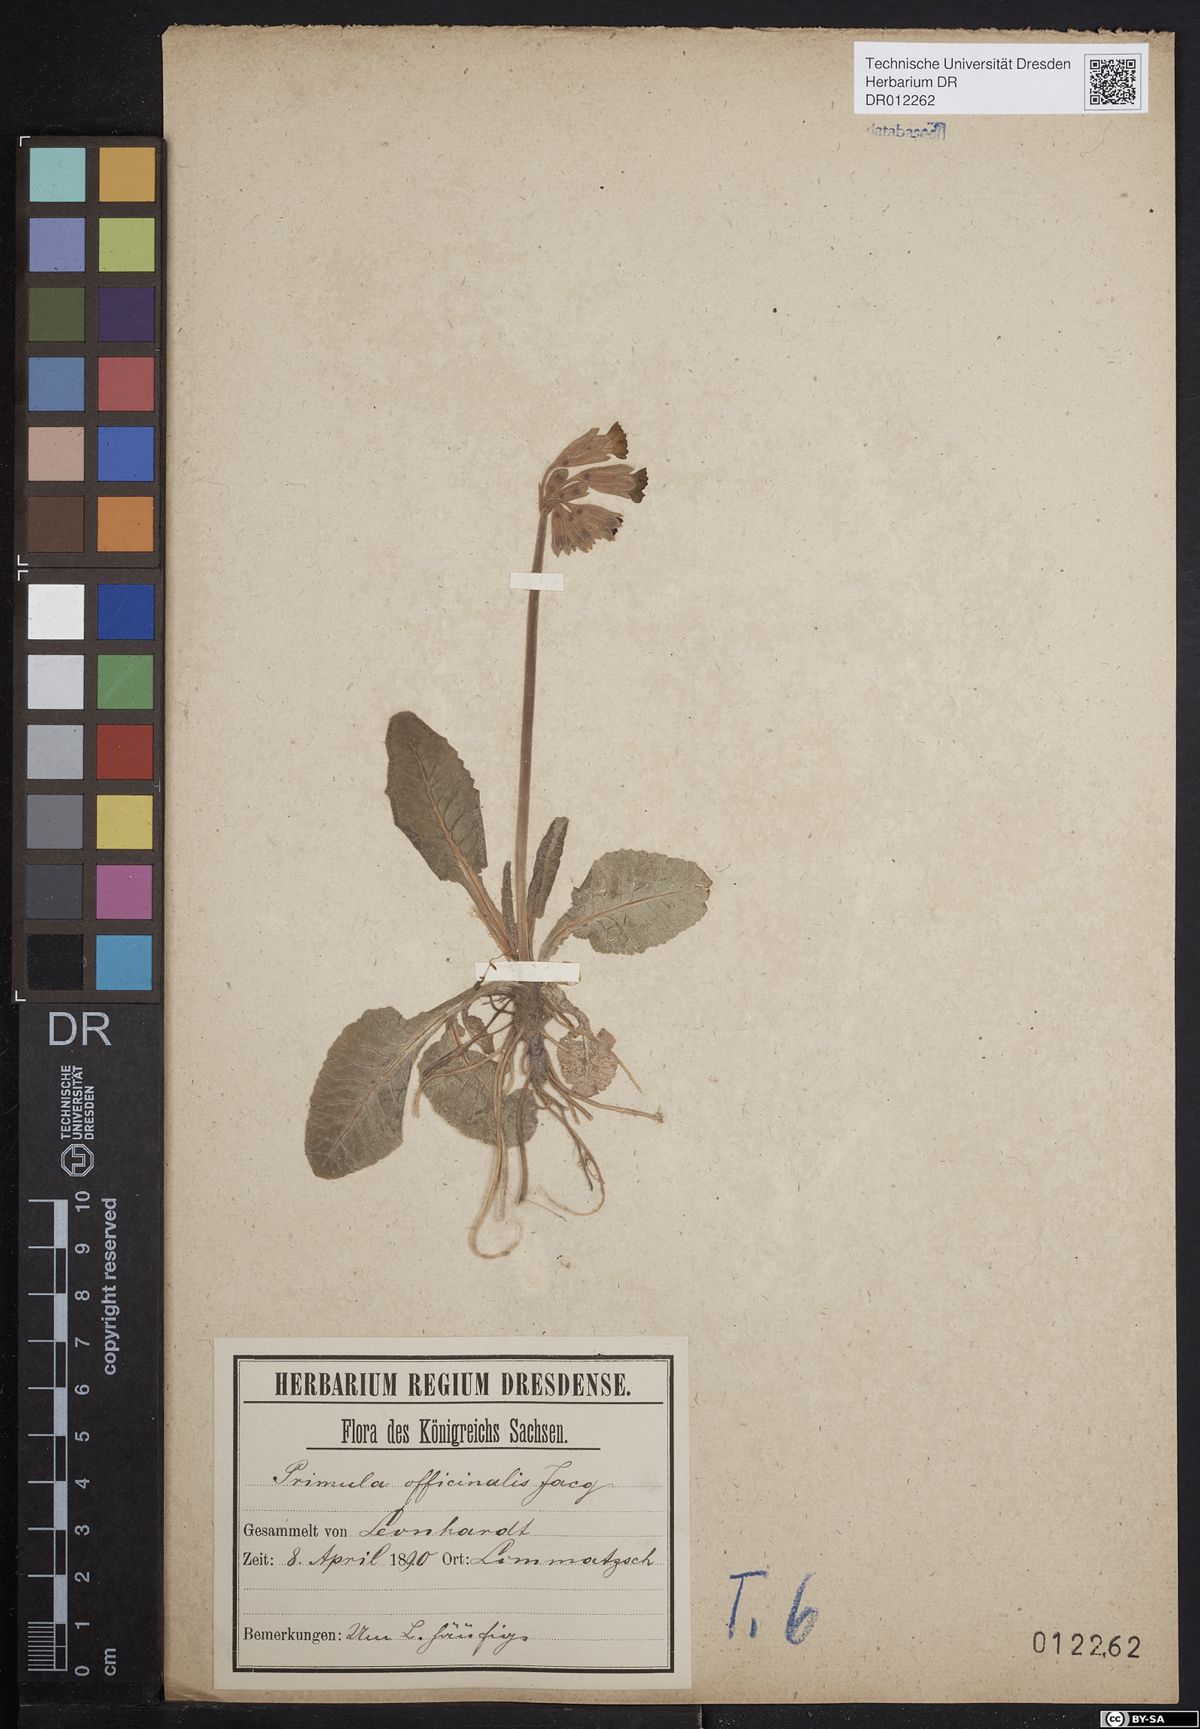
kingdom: Plantae
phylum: Tracheophyta
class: Magnoliopsida
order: Ericales
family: Primulaceae
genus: Primula
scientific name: Primula veris
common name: Cowslip
